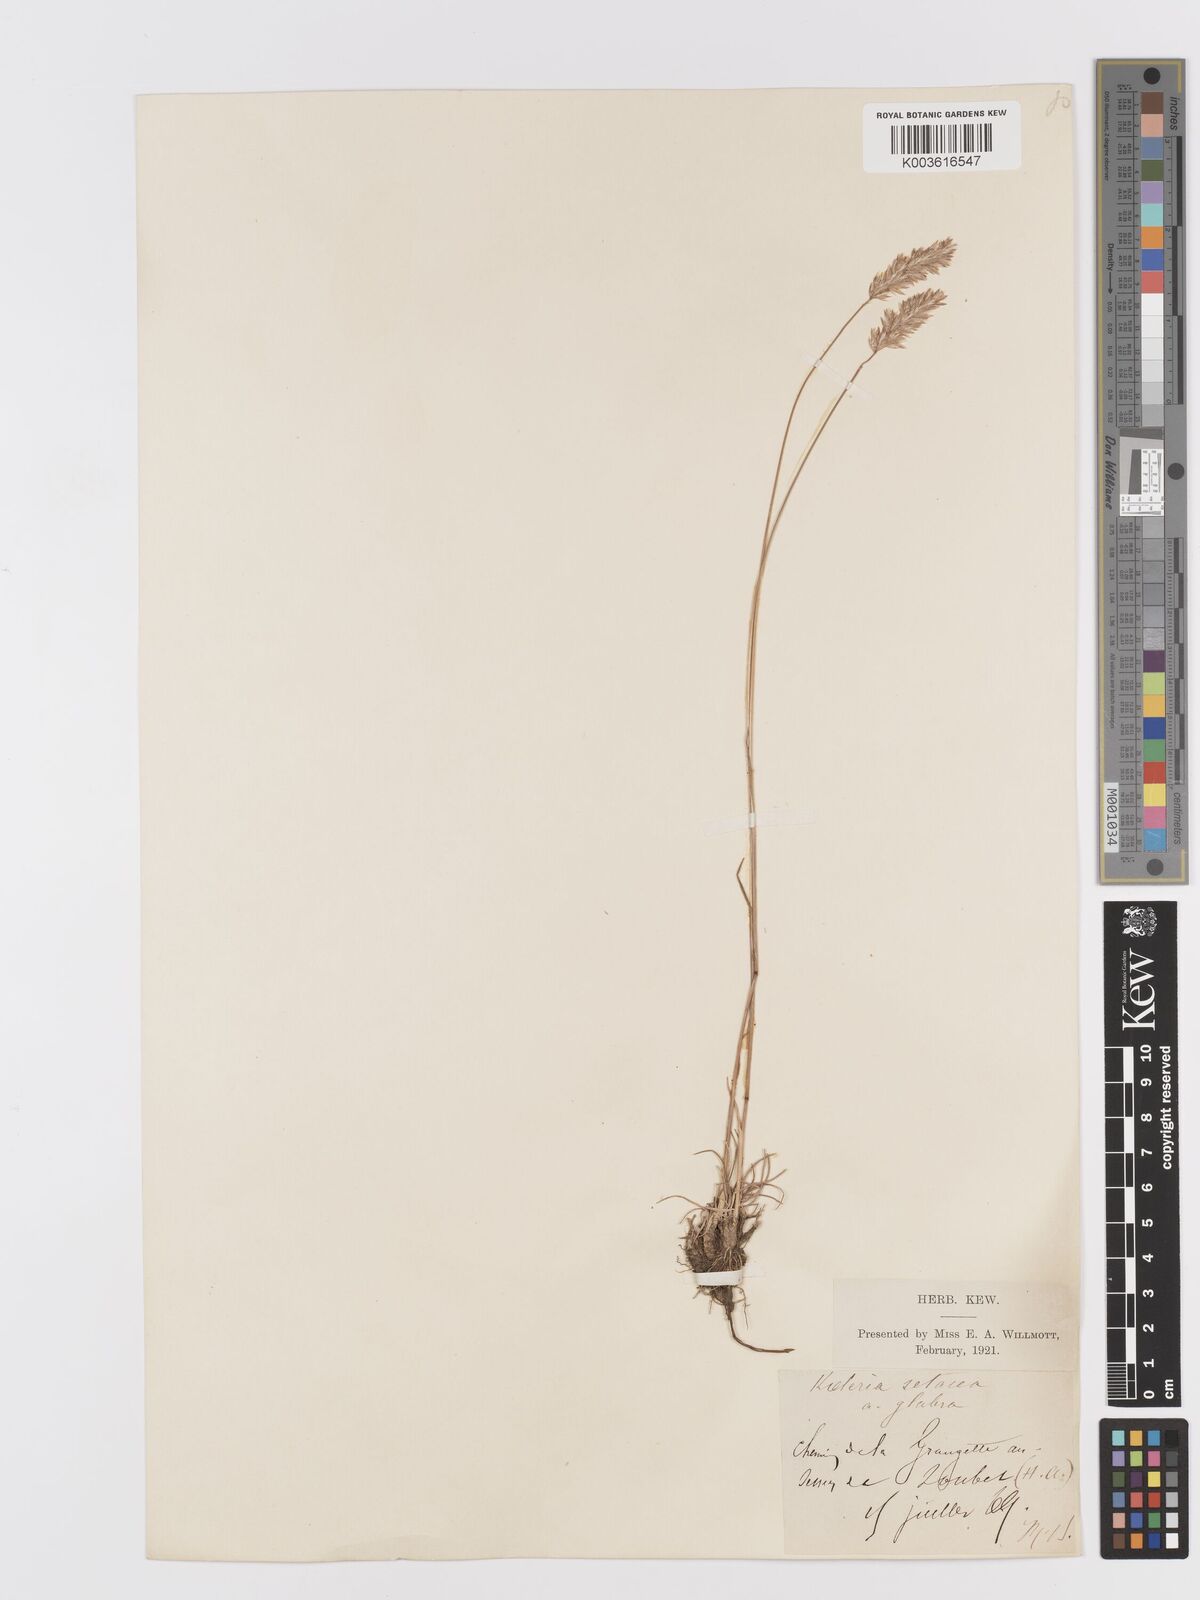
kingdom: Plantae
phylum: Tracheophyta
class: Liliopsida
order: Poales
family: Poaceae
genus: Koeleria
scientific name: Koeleria vallesiana
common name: Somerset hair-grass
